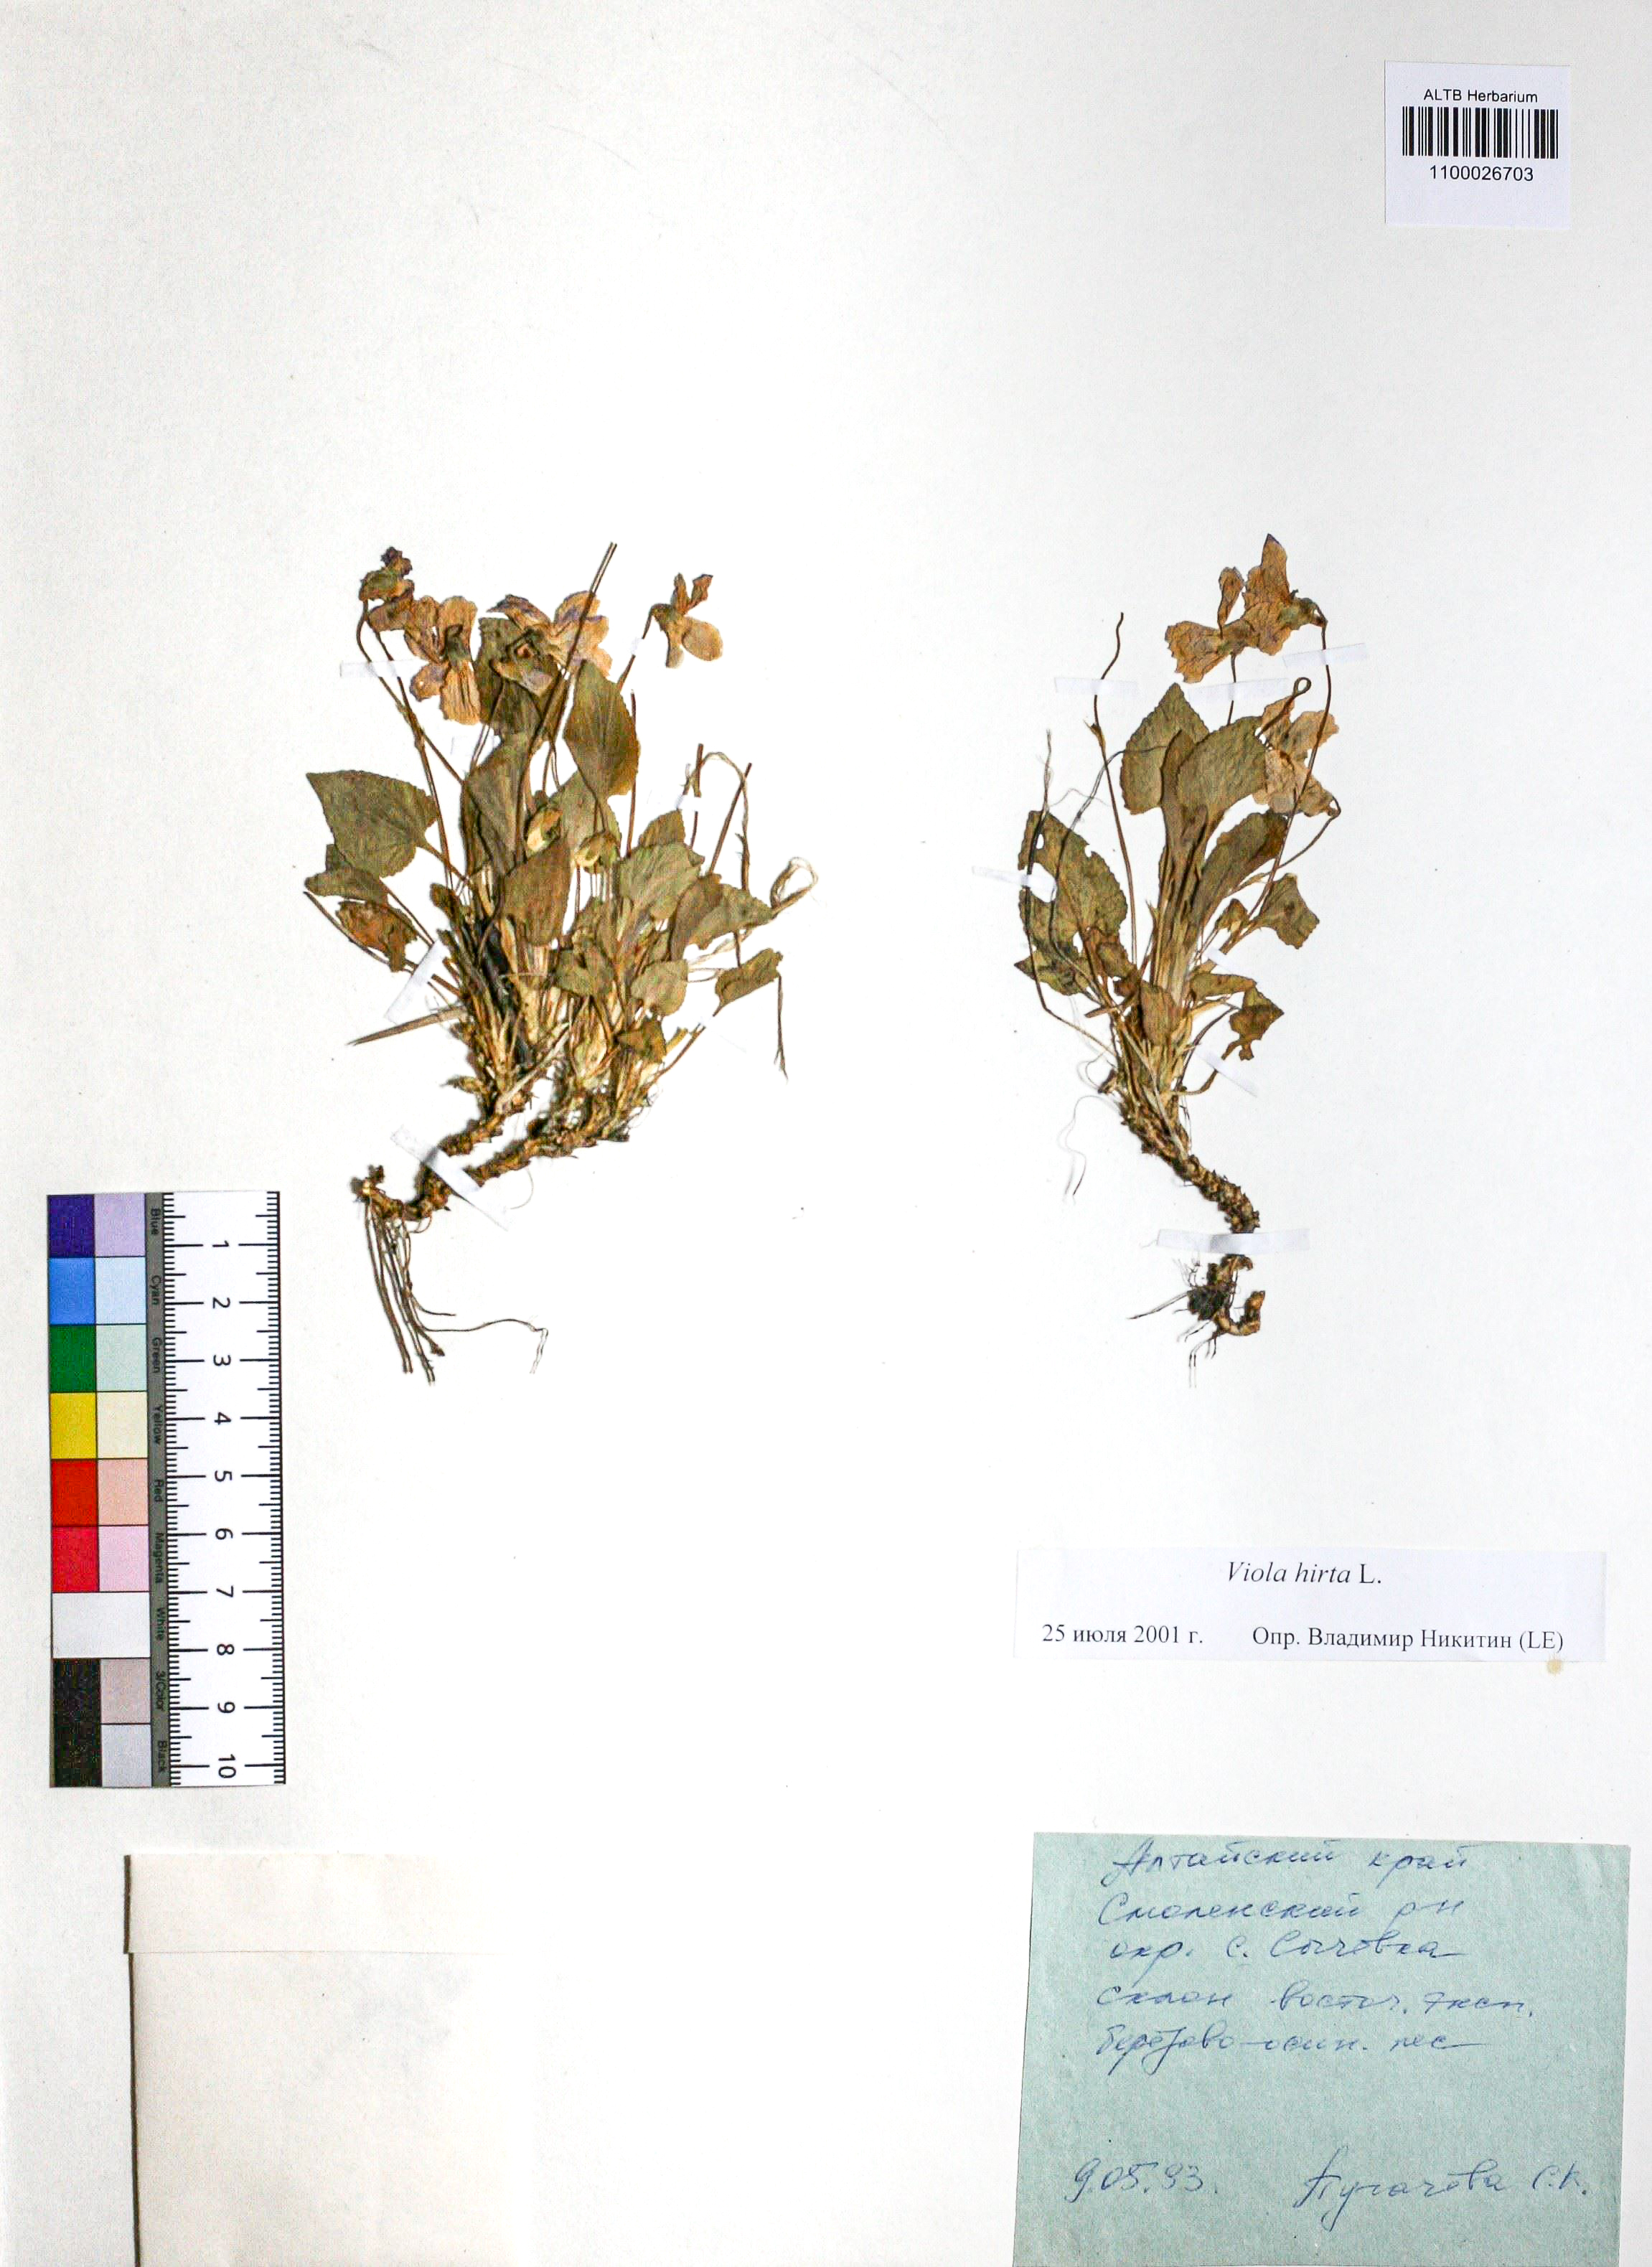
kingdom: Plantae
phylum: Tracheophyta
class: Magnoliopsida
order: Malpighiales
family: Violaceae
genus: Viola
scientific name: Viola hirta
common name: Hairy violet
